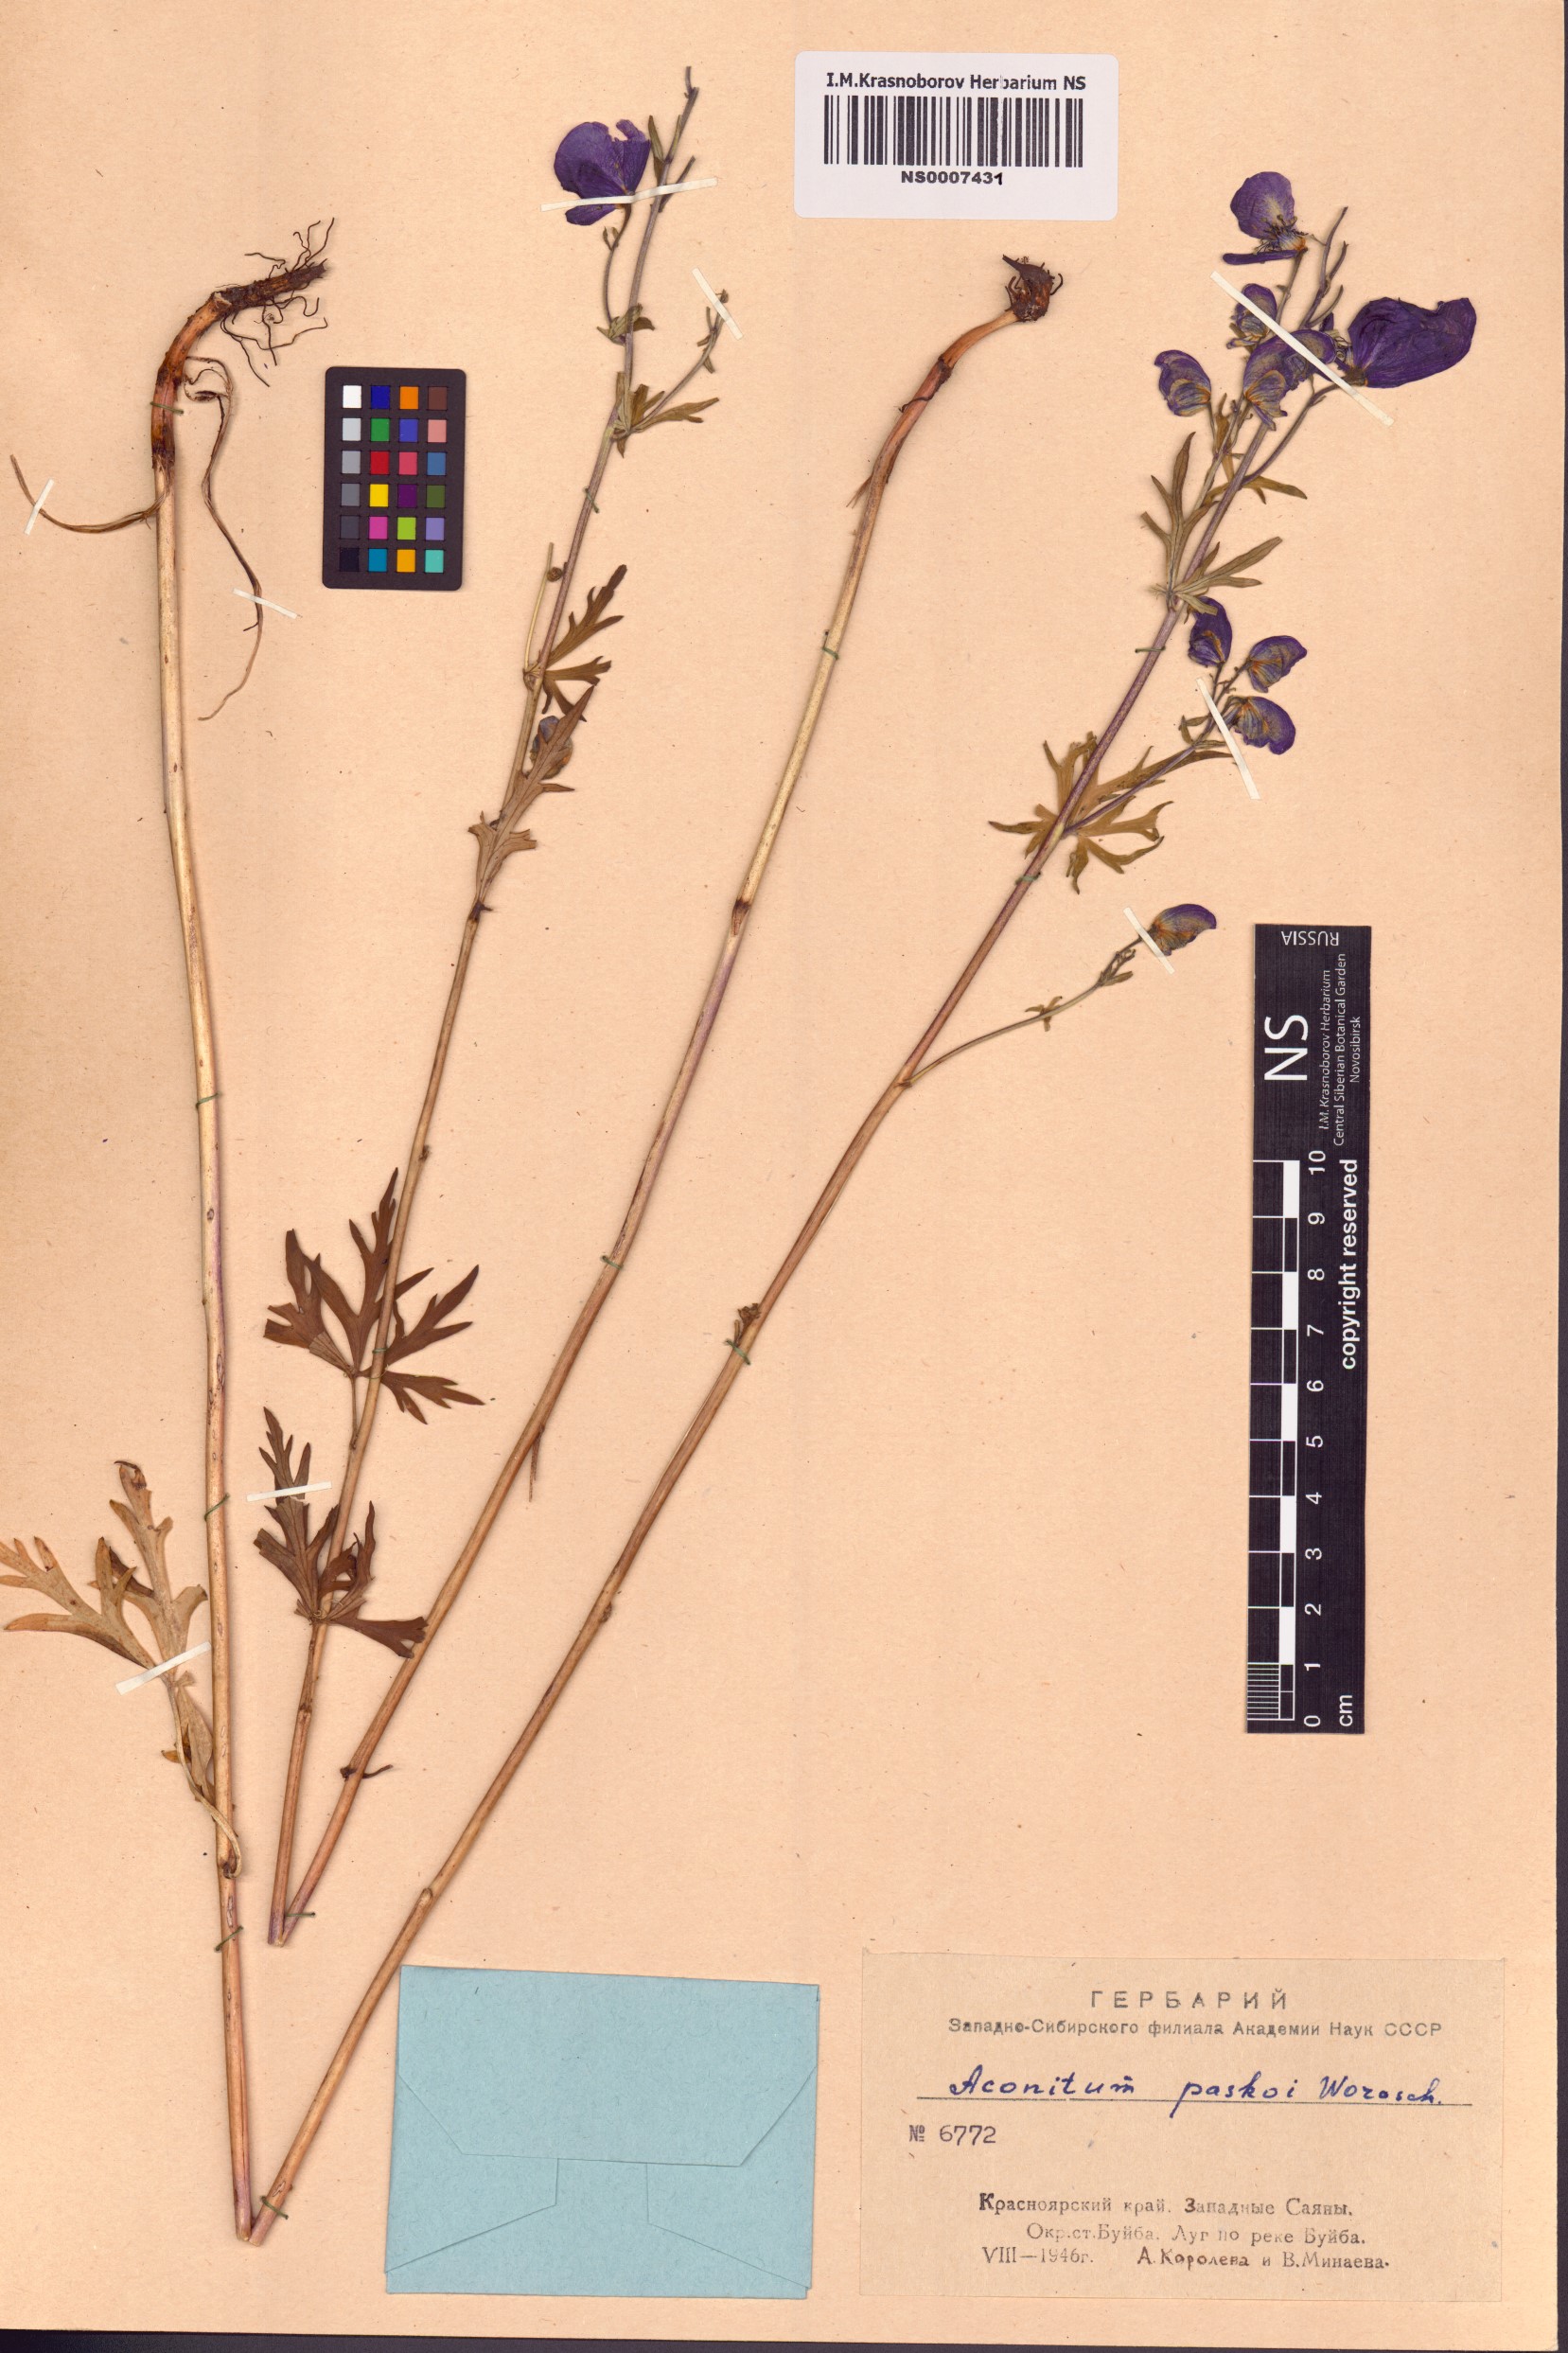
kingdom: Plantae
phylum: Tracheophyta
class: Magnoliopsida
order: Ranunculales
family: Ranunculaceae
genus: Aconitum
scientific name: Aconitum pascoi
